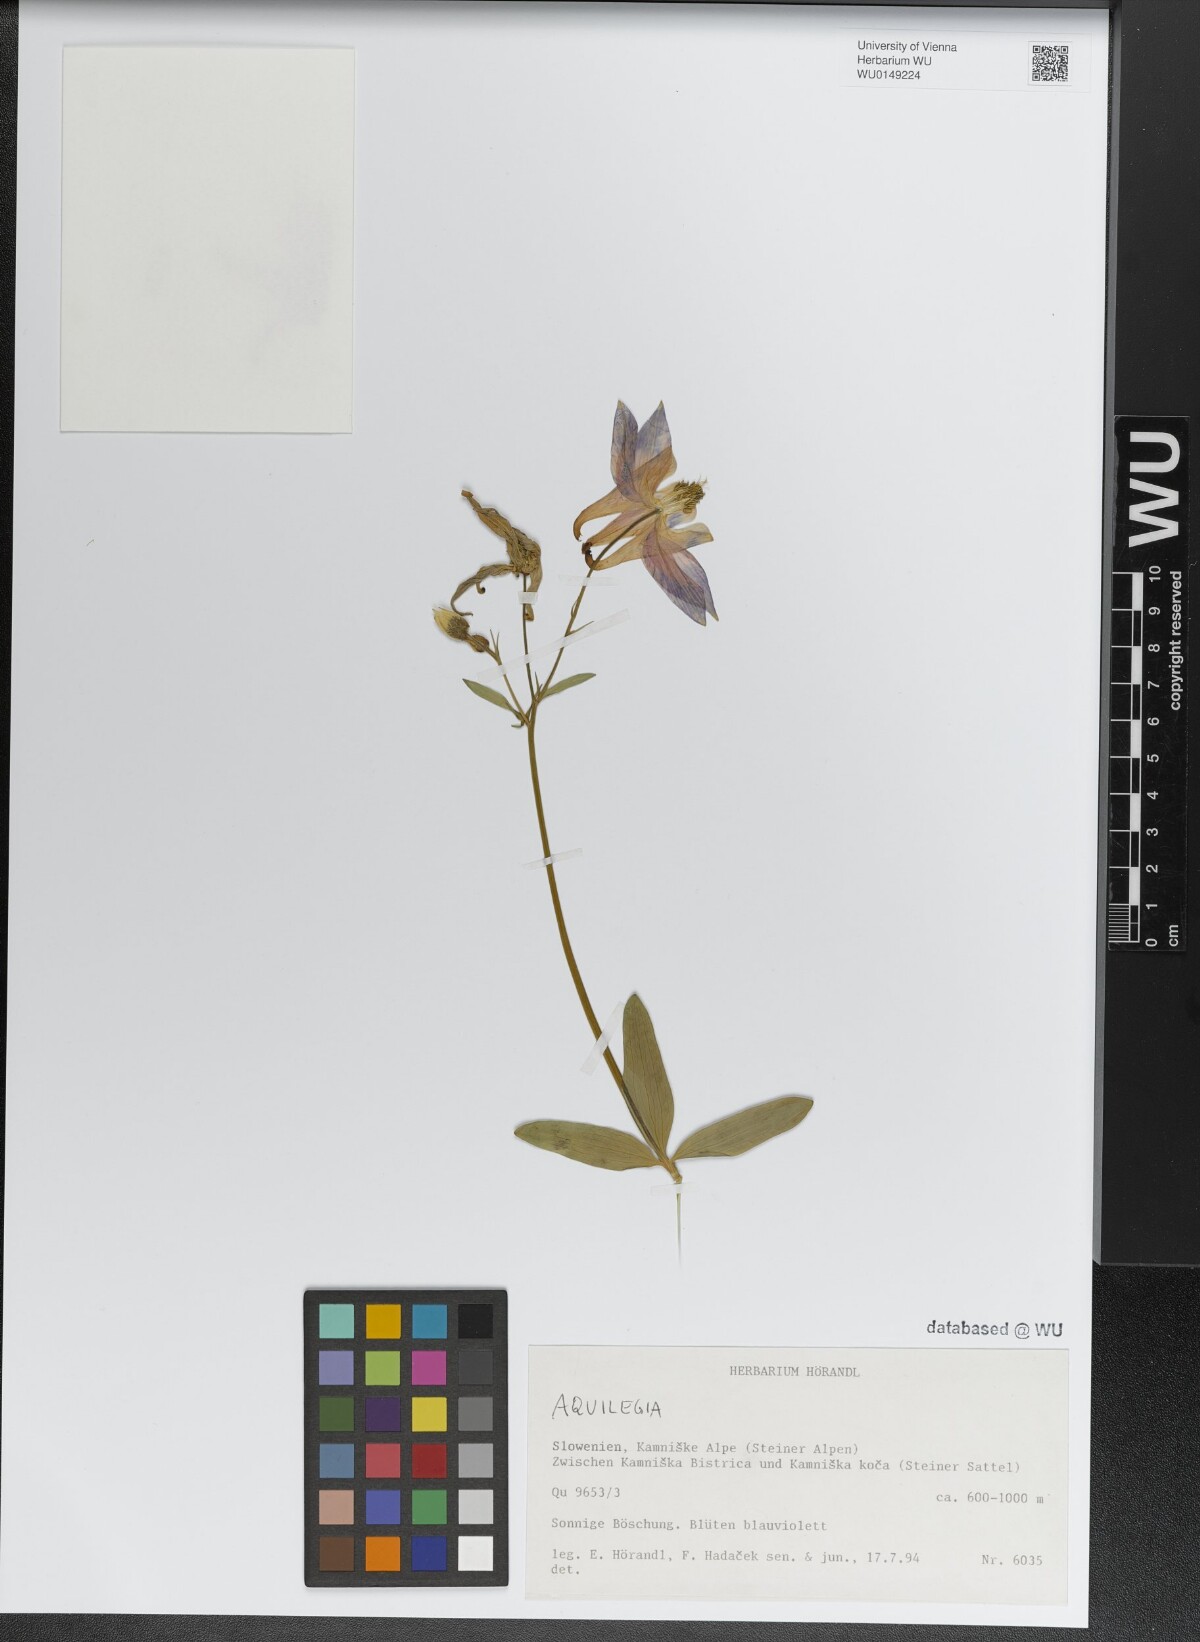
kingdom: Plantae
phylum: Tracheophyta
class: Magnoliopsida
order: Ranunculales
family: Ranunculaceae
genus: Aquilegia
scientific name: Aquilegia
